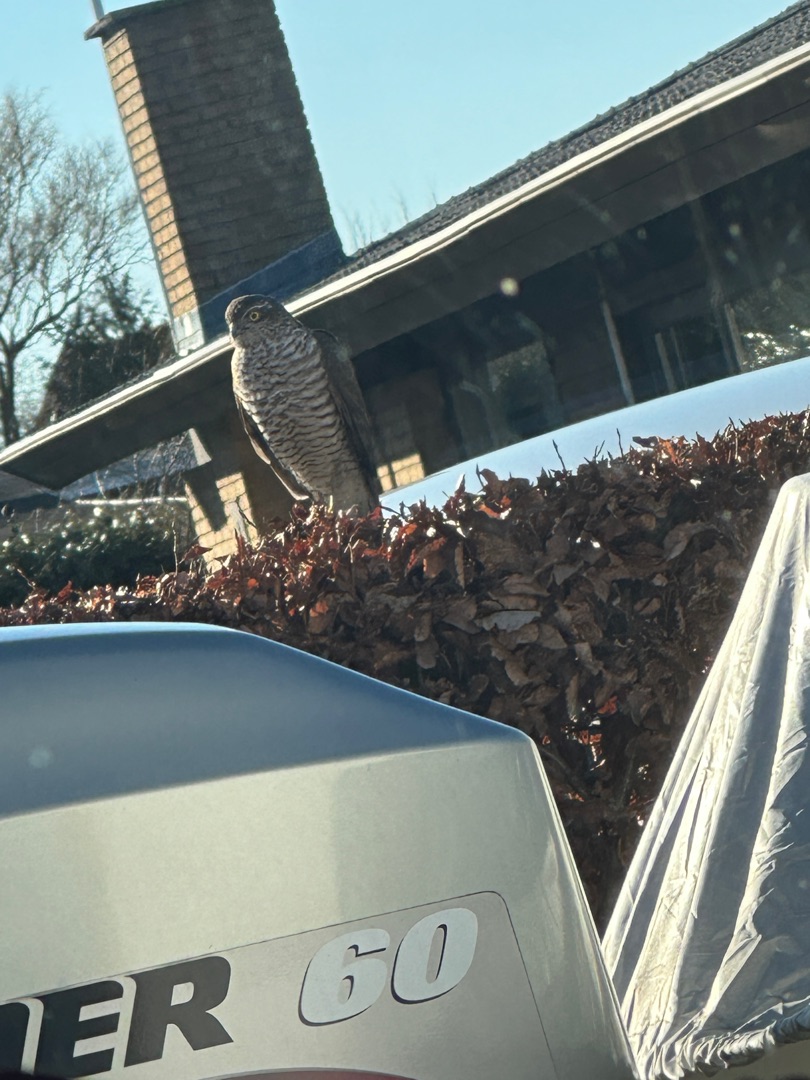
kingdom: Animalia
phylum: Chordata
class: Aves
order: Accipitriformes
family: Accipitridae
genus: Accipiter
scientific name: Accipiter nisus
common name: Spurvehøg
